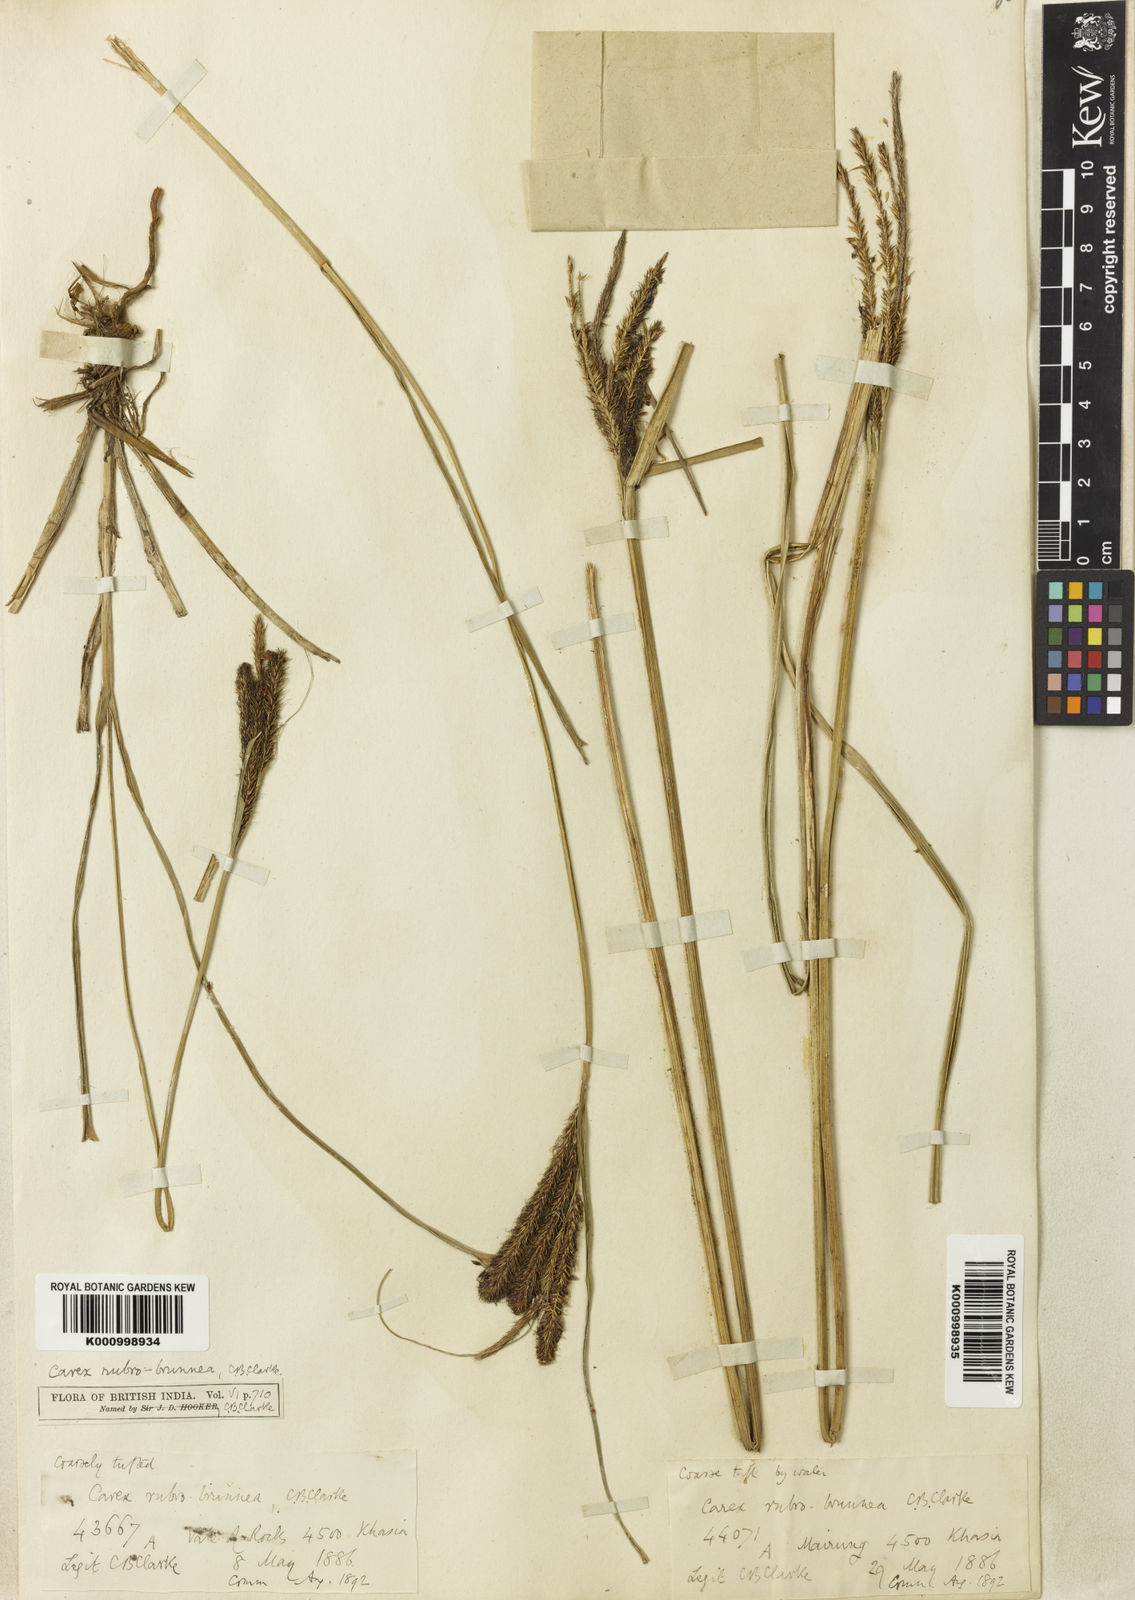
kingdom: Plantae
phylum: Tracheophyta
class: Liliopsida
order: Poales
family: Cyperaceae
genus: Carex
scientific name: Carex rubrobrunnea
